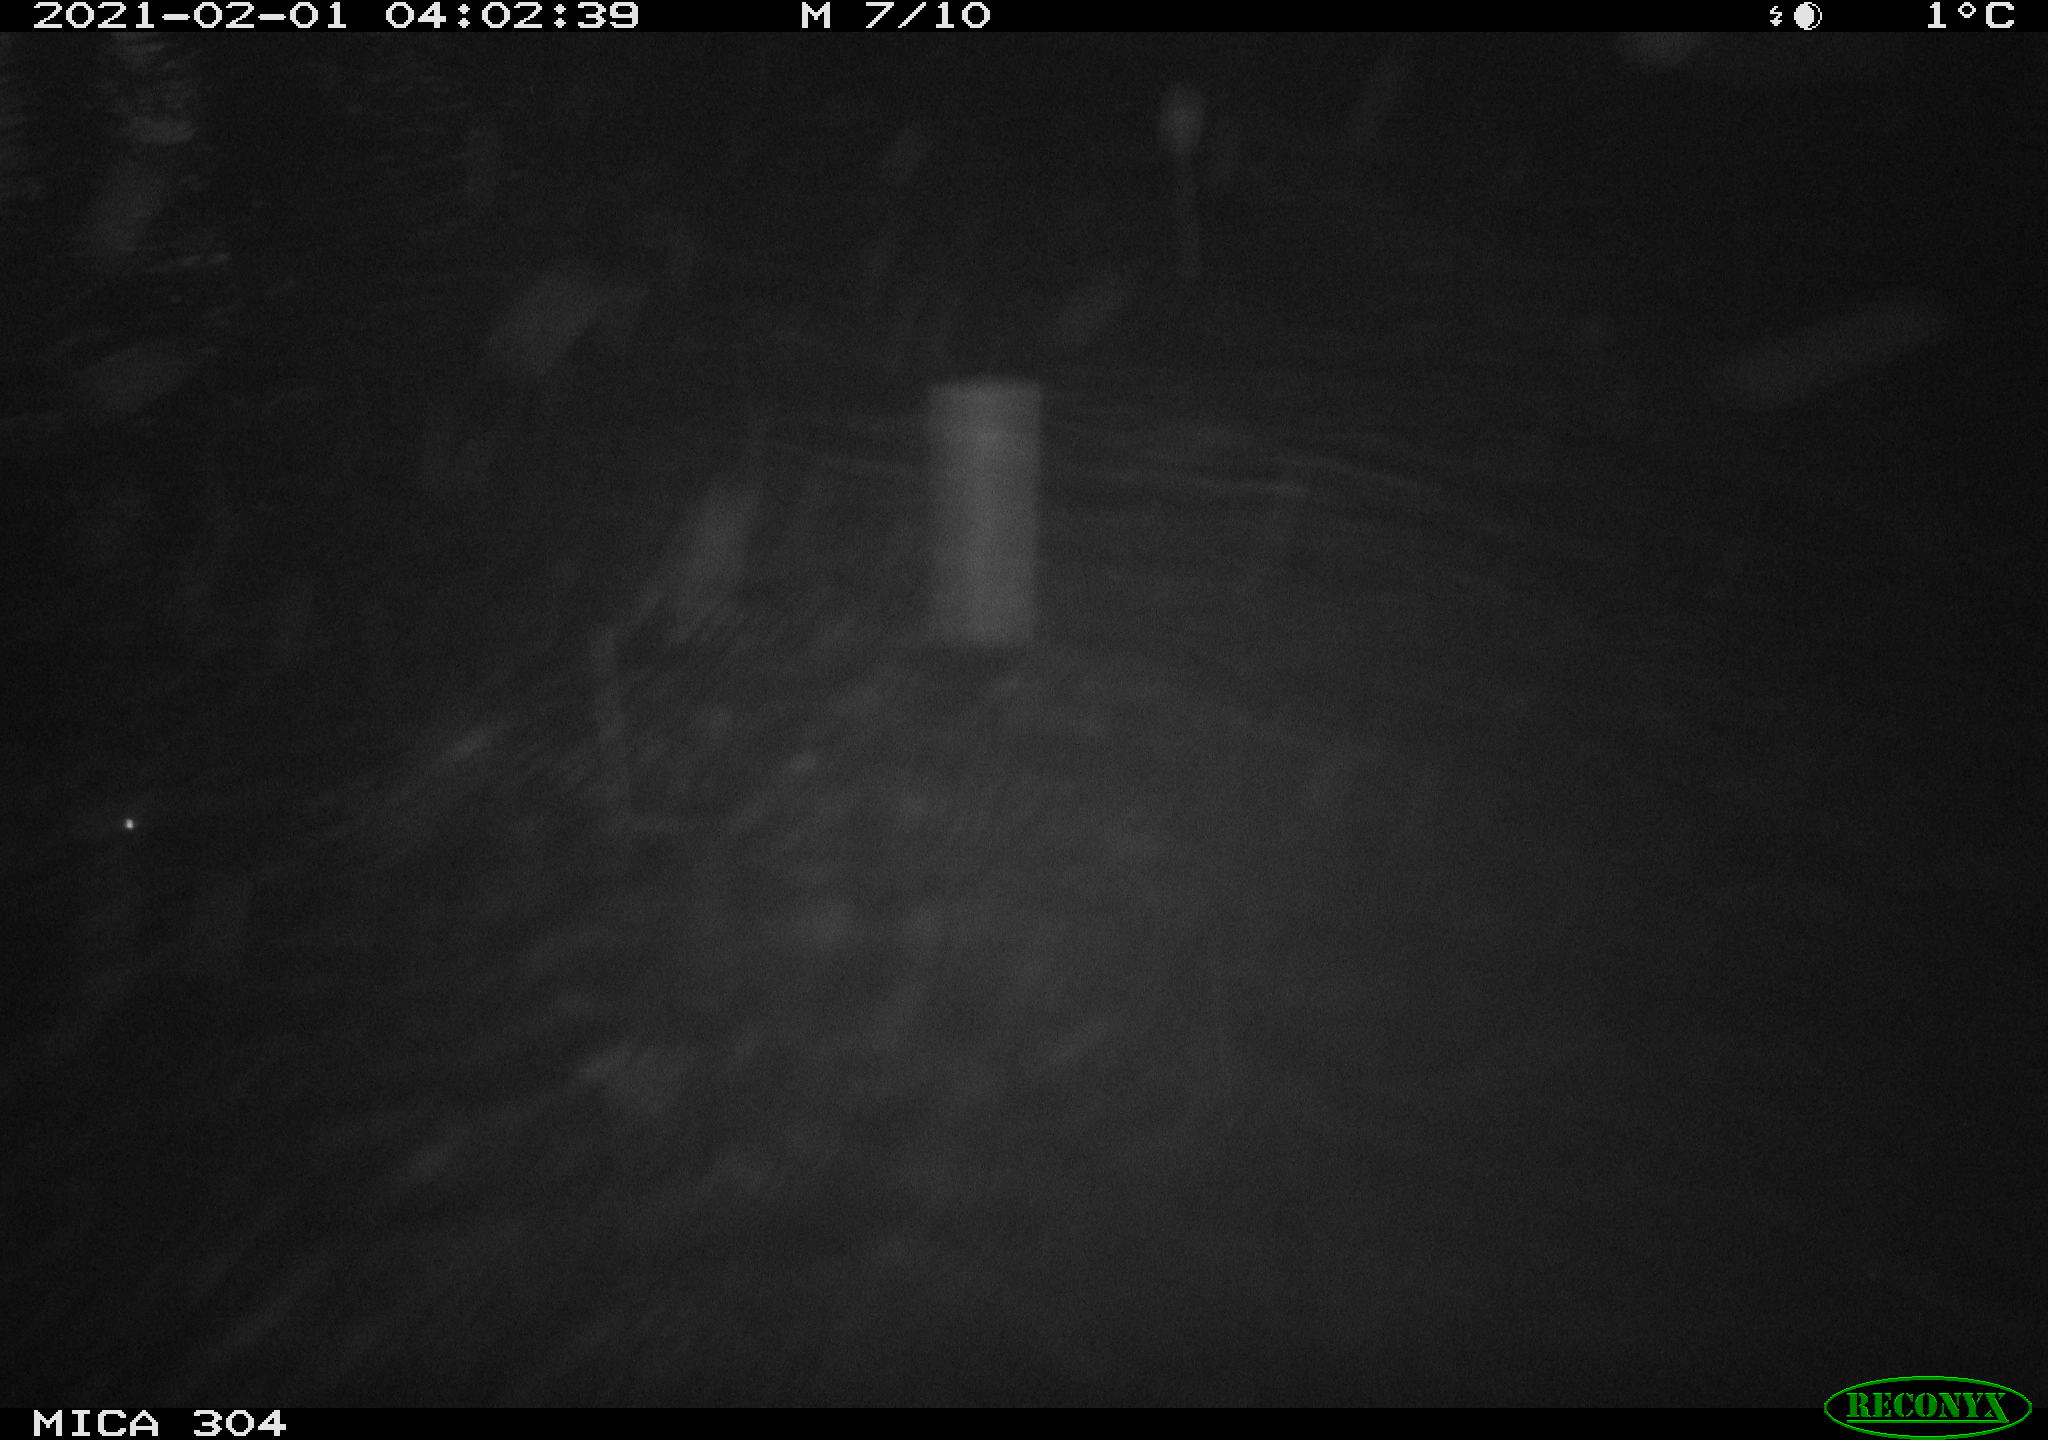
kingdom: Animalia
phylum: Chordata
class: Mammalia
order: Rodentia
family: Cricetidae
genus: Ondatra
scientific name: Ondatra zibethicus
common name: Muskrat
